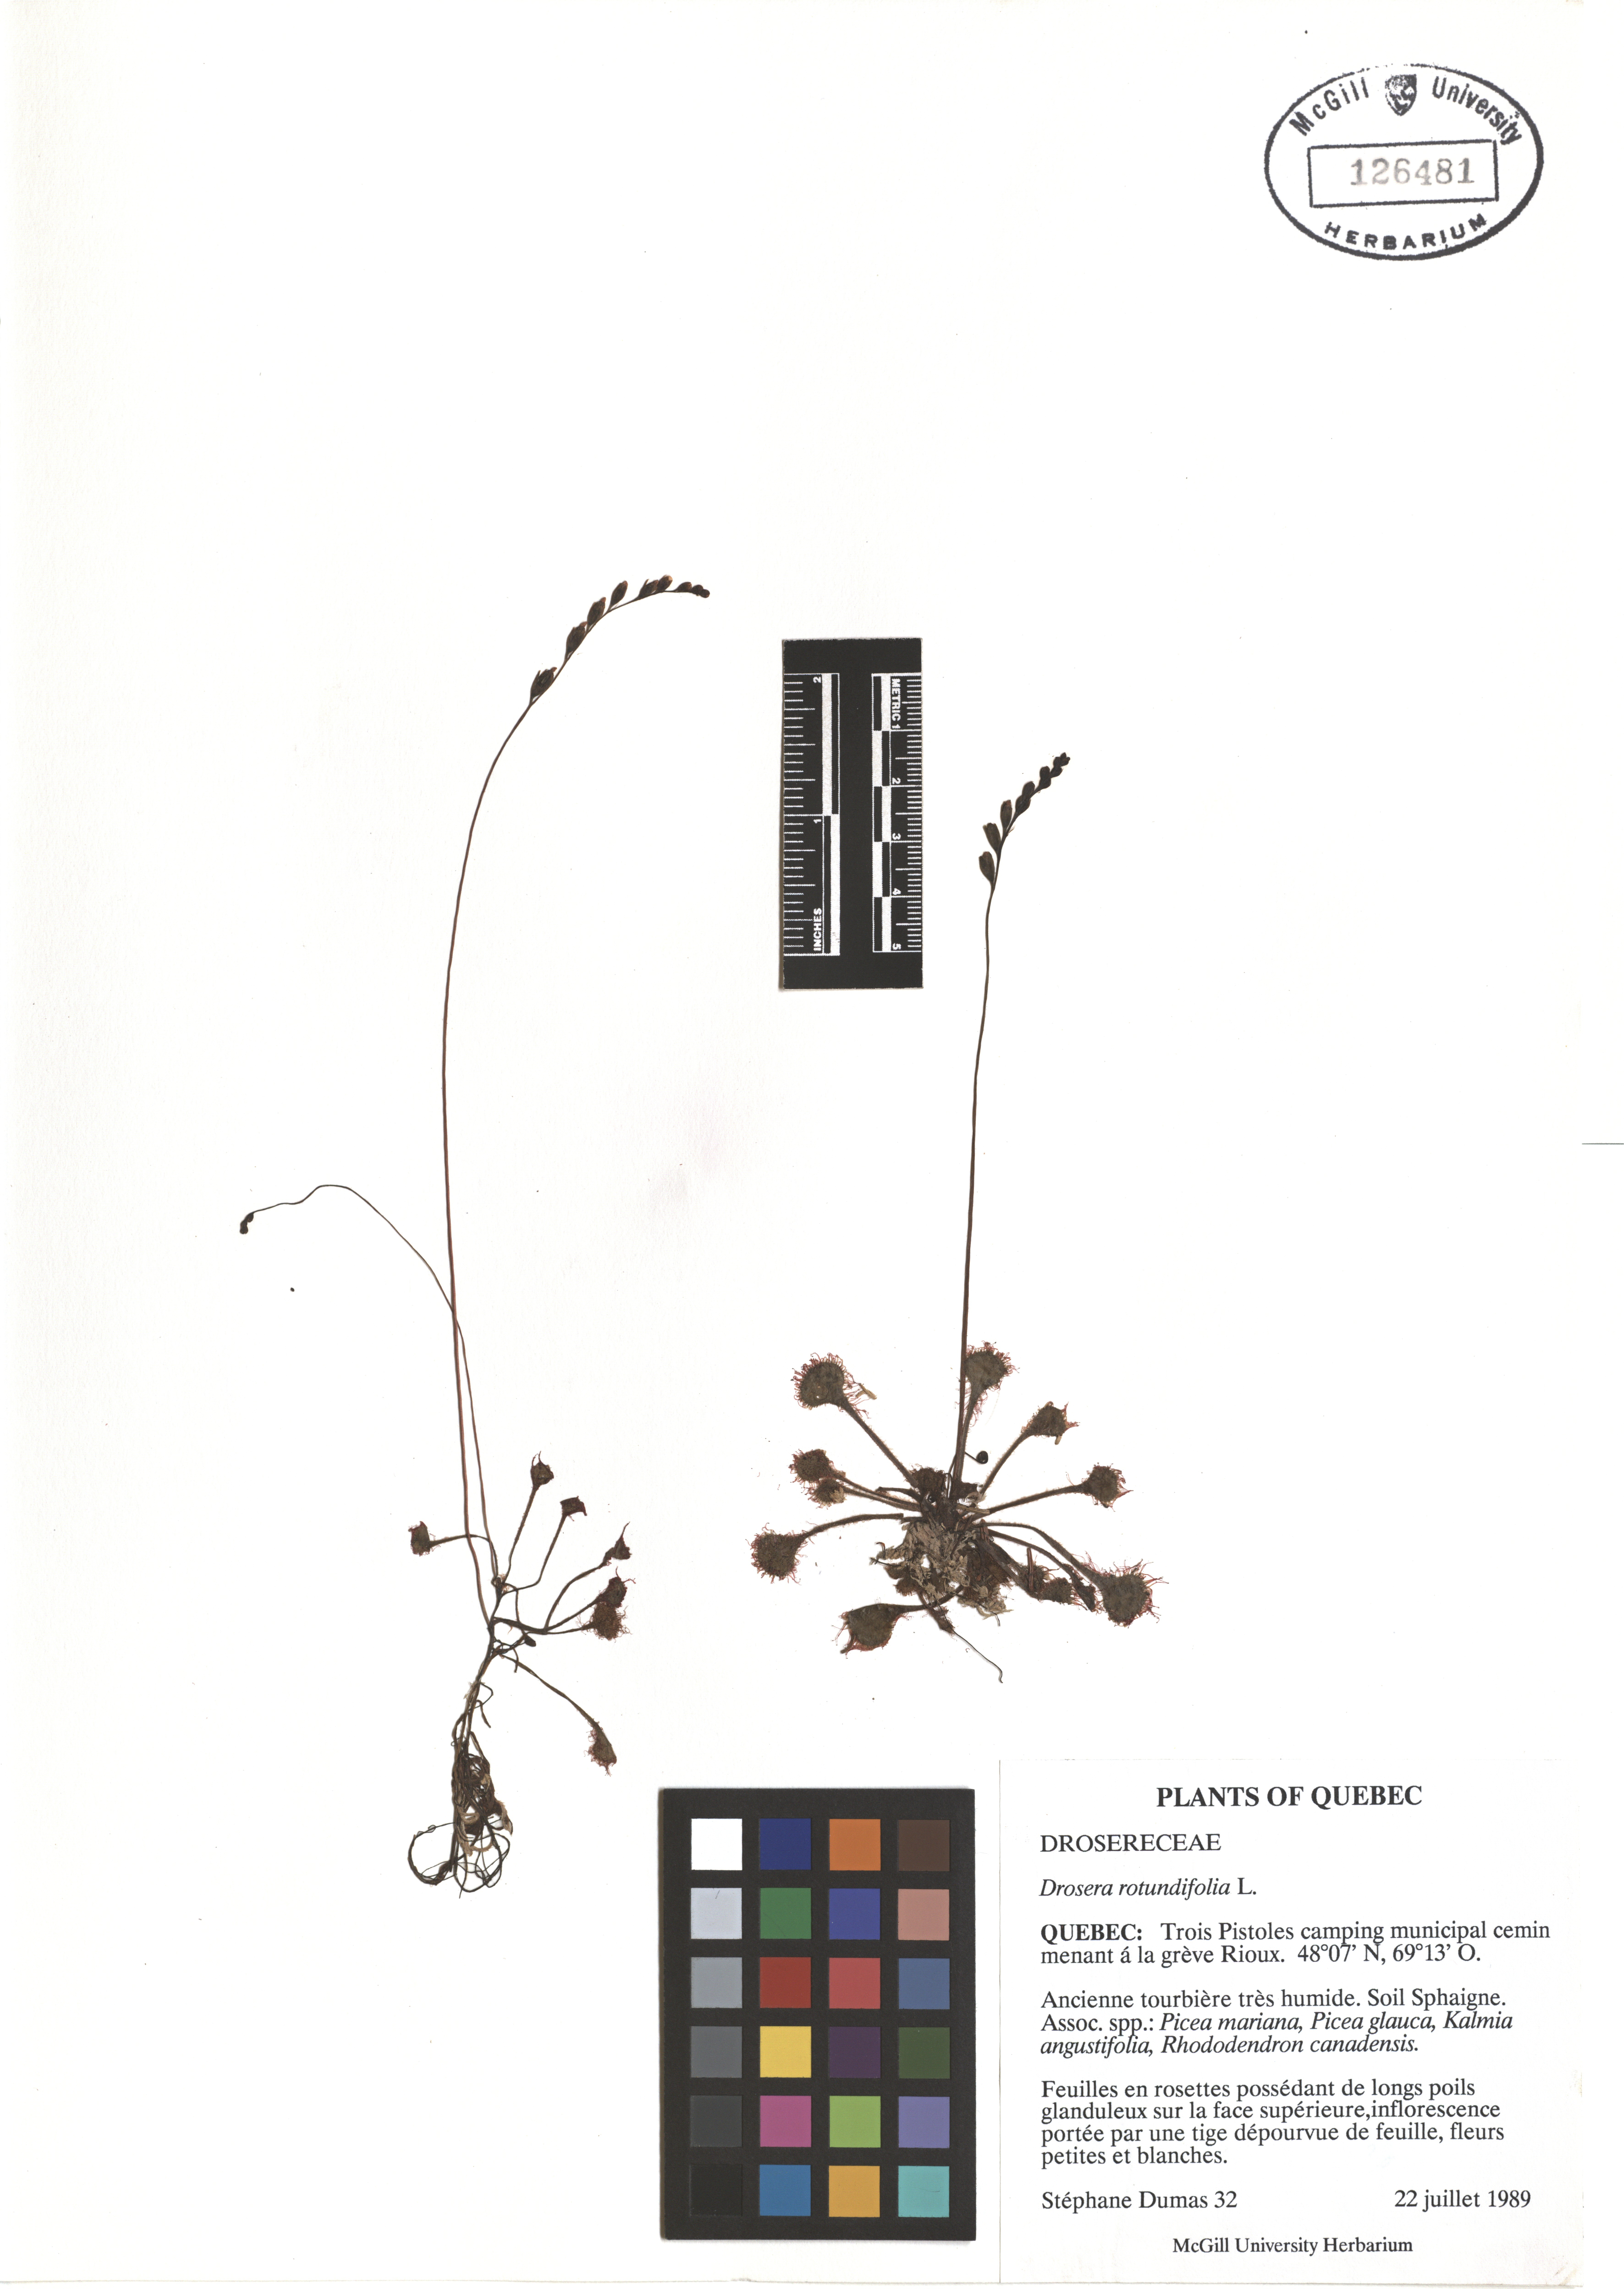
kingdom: Plantae
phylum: Tracheophyta
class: Magnoliopsida
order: Caryophyllales
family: Droseraceae
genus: Drosera
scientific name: Drosera rotundifolia
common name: Round-leaved sundew
